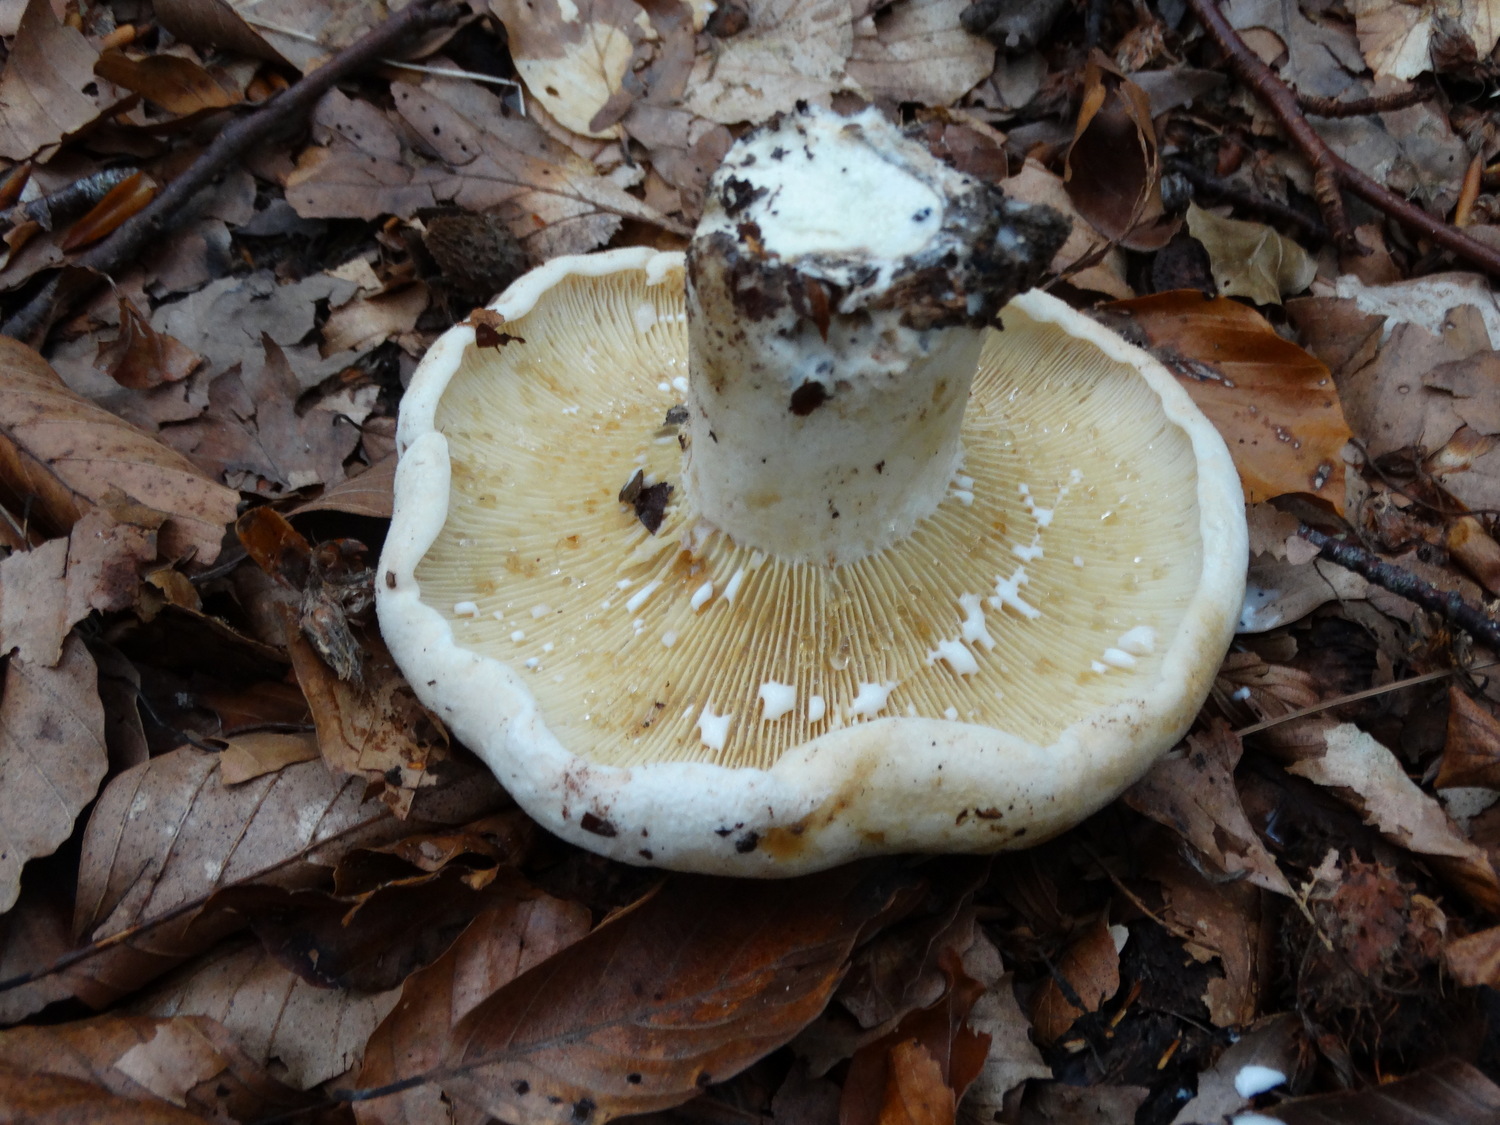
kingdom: Fungi
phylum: Basidiomycota
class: Agaricomycetes
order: Russulales
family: Russulaceae
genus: Lactifluus
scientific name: Lactifluus vellereus
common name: hvidfiltet mælkehat
